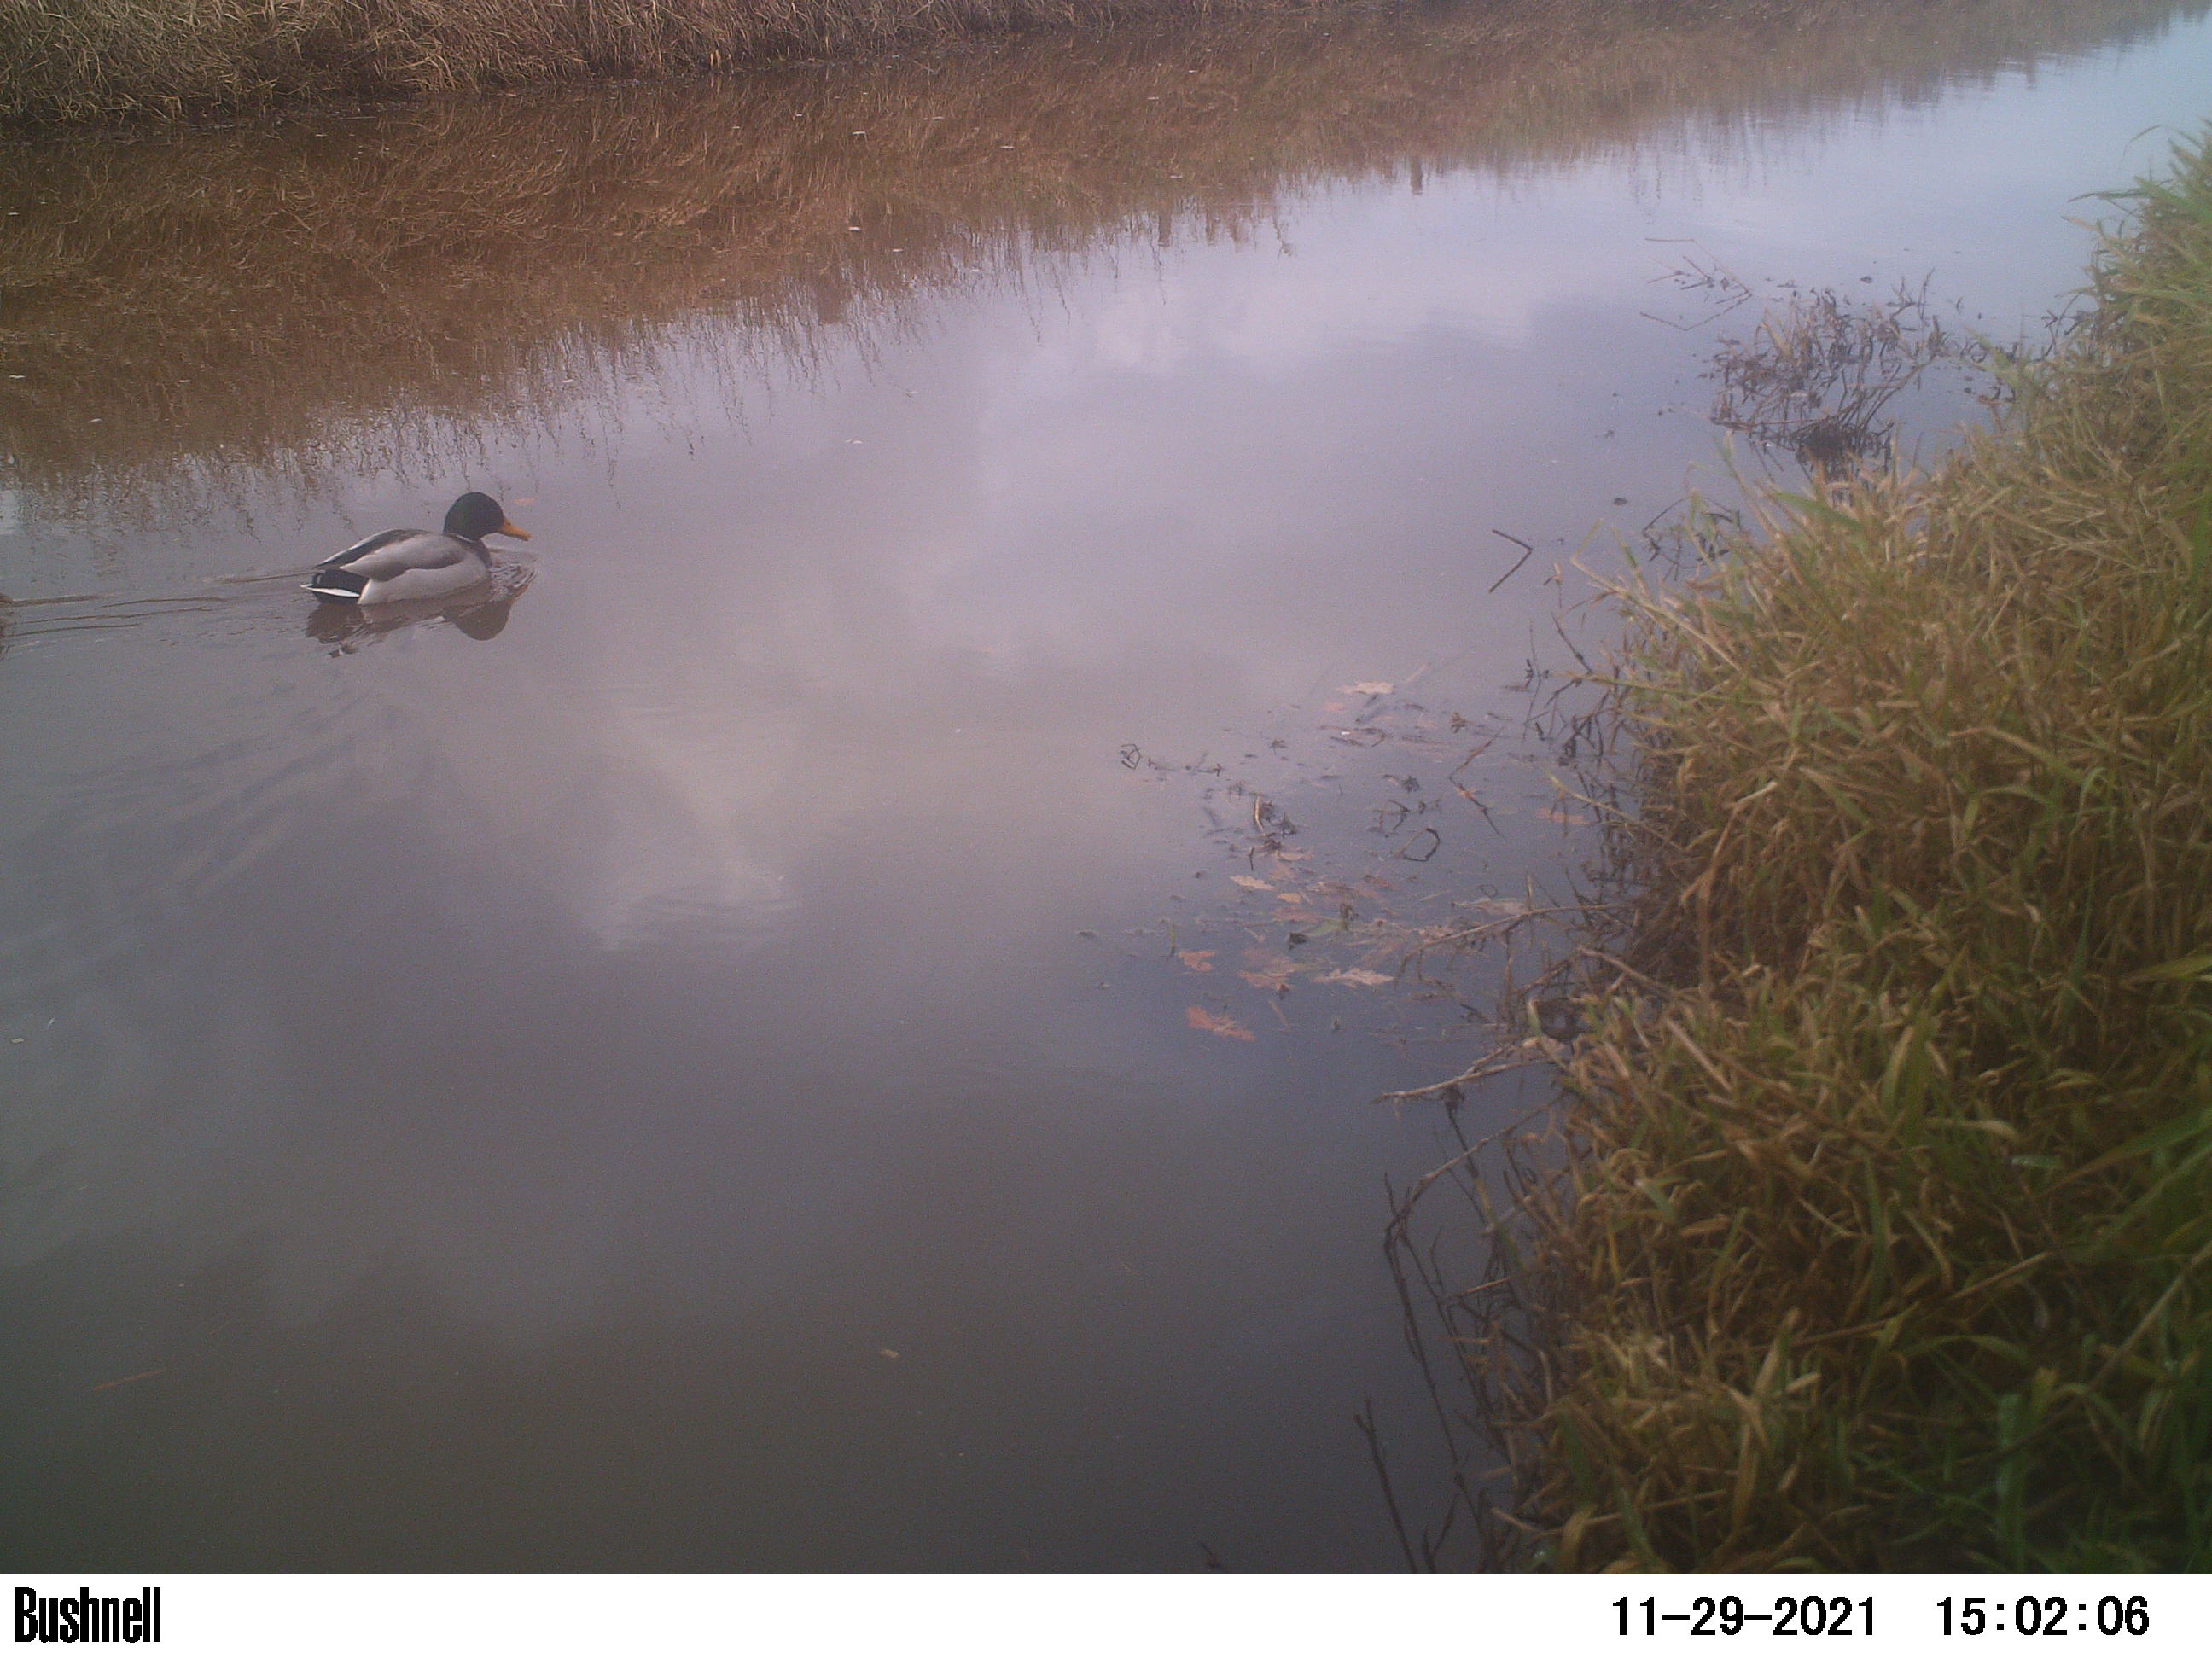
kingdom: Animalia
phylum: Chordata
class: Aves
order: Anseriformes
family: Anatidae
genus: Anas
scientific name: Anas
